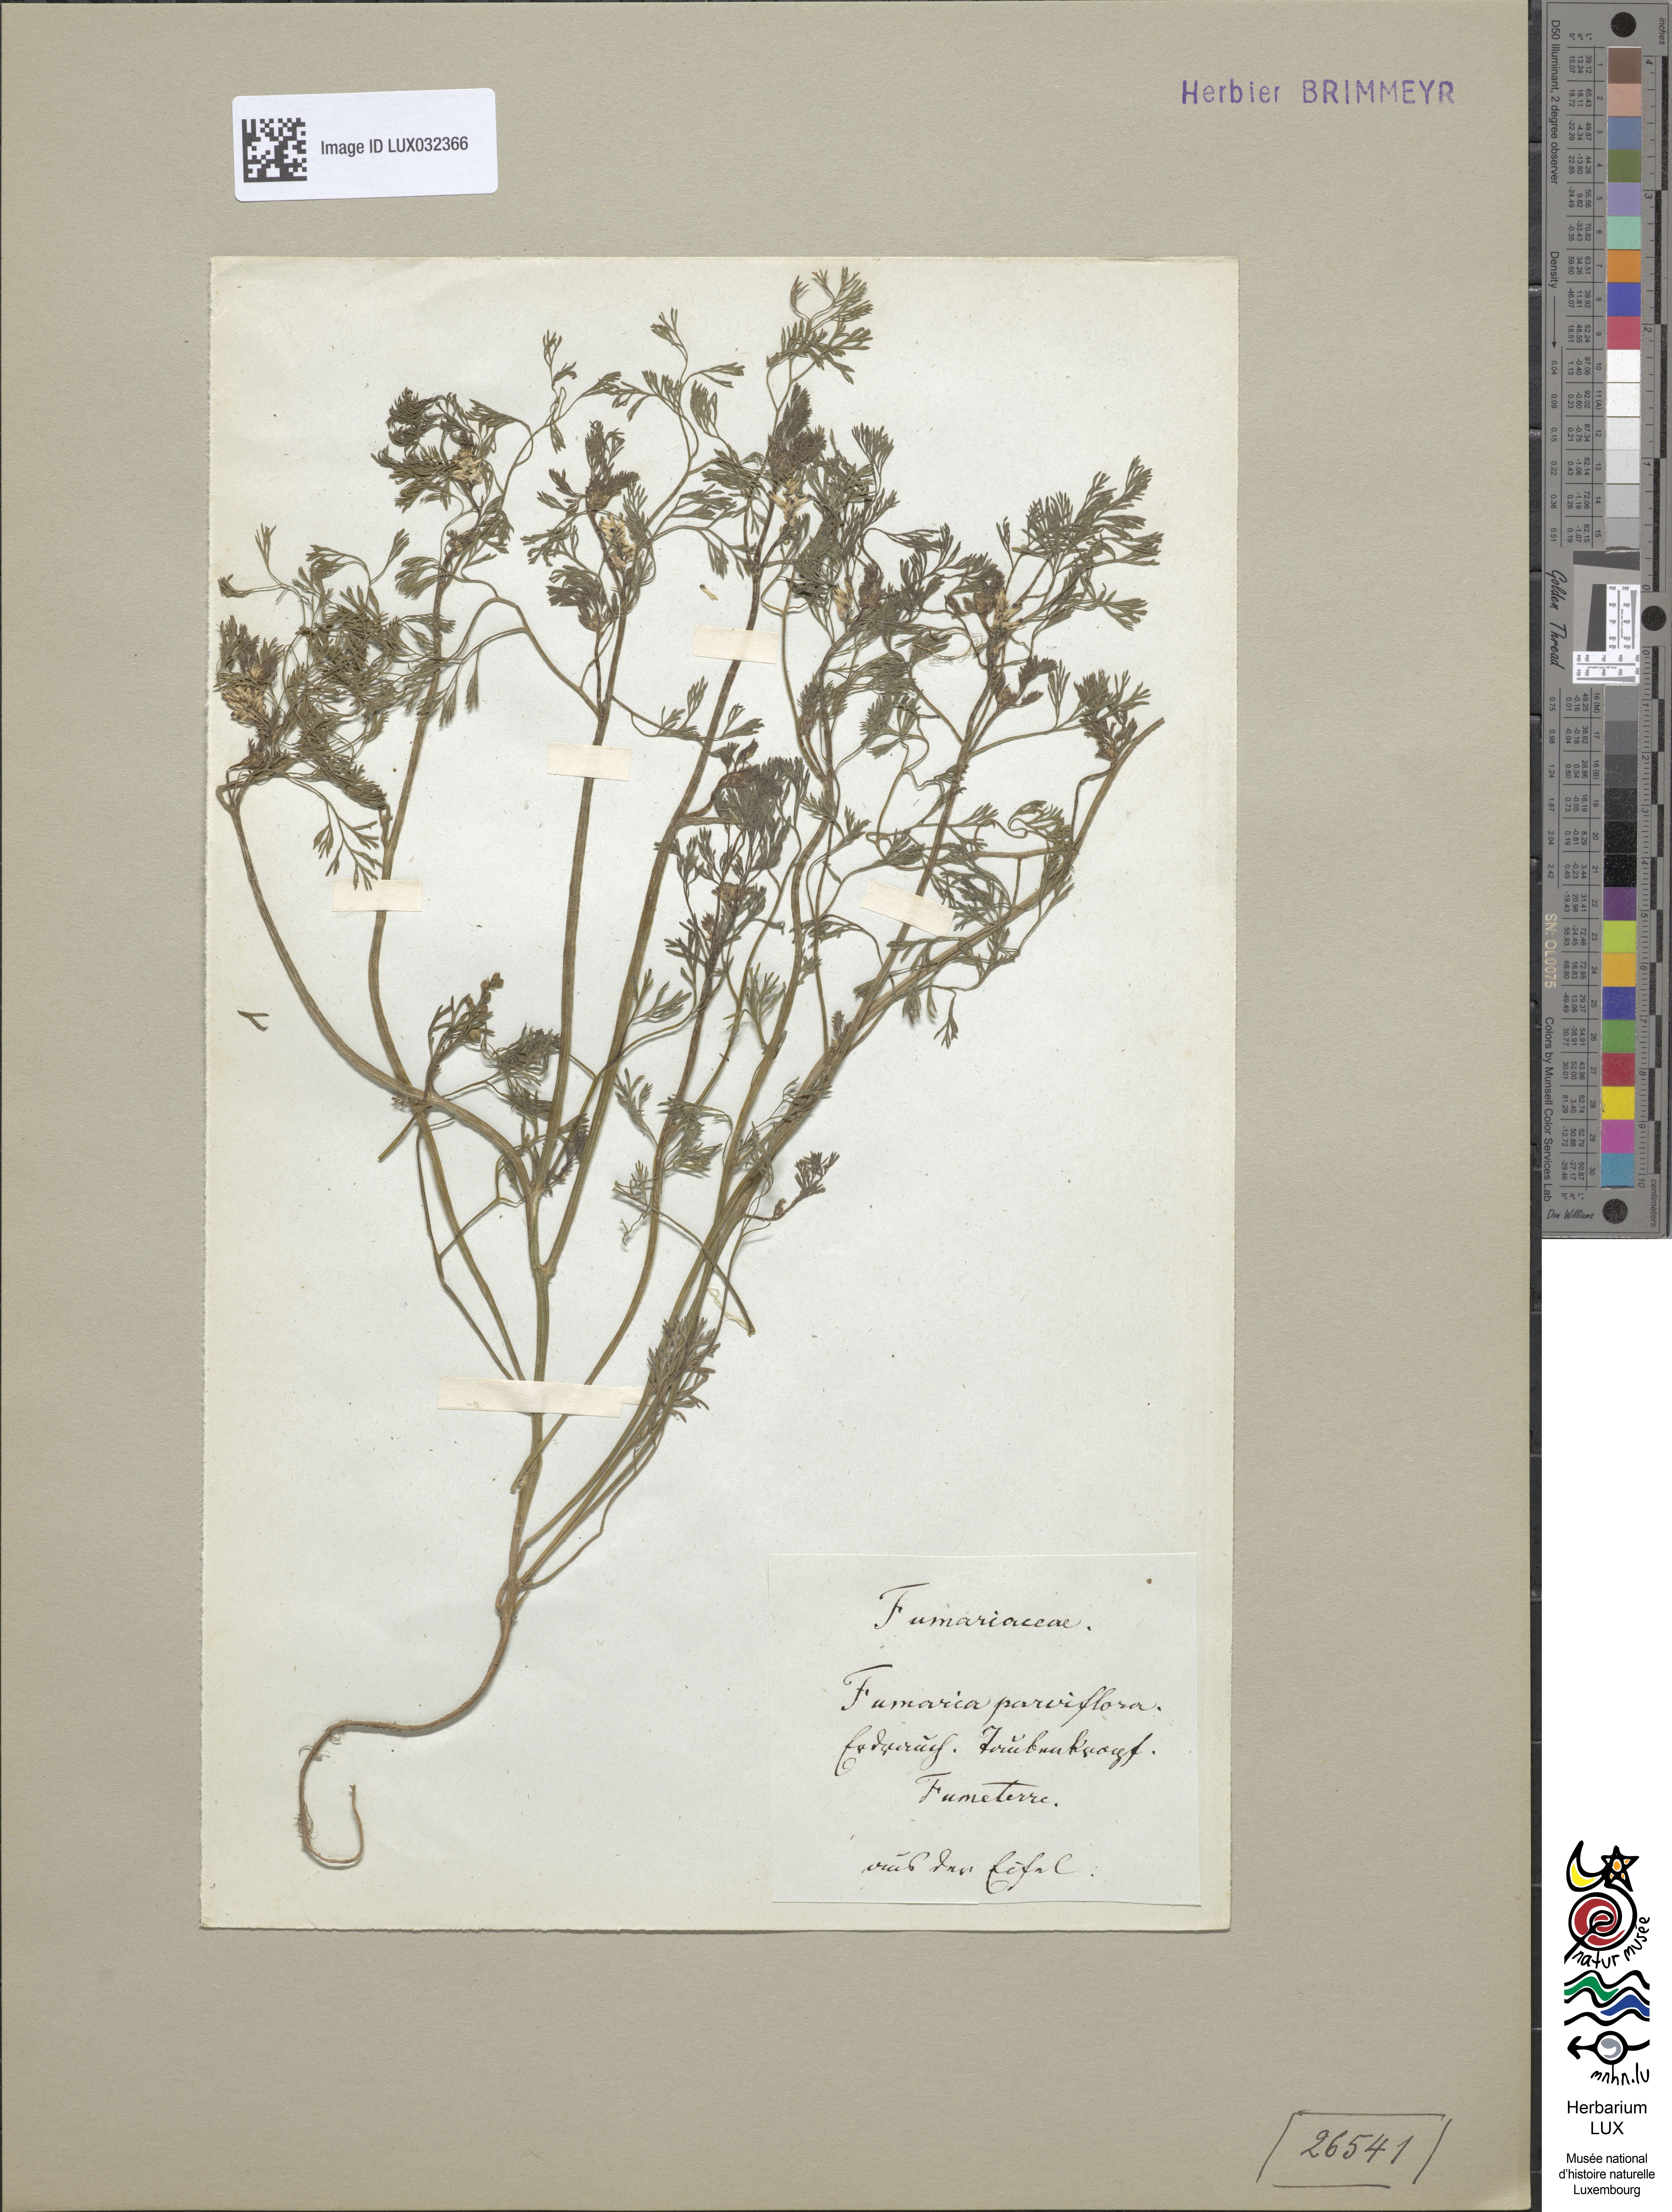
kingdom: Plantae
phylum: Tracheophyta
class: Magnoliopsida
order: Ranunculales
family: Papaveraceae
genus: Fumaria
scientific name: Fumaria parviflora
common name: Fine-leaved fumitory
